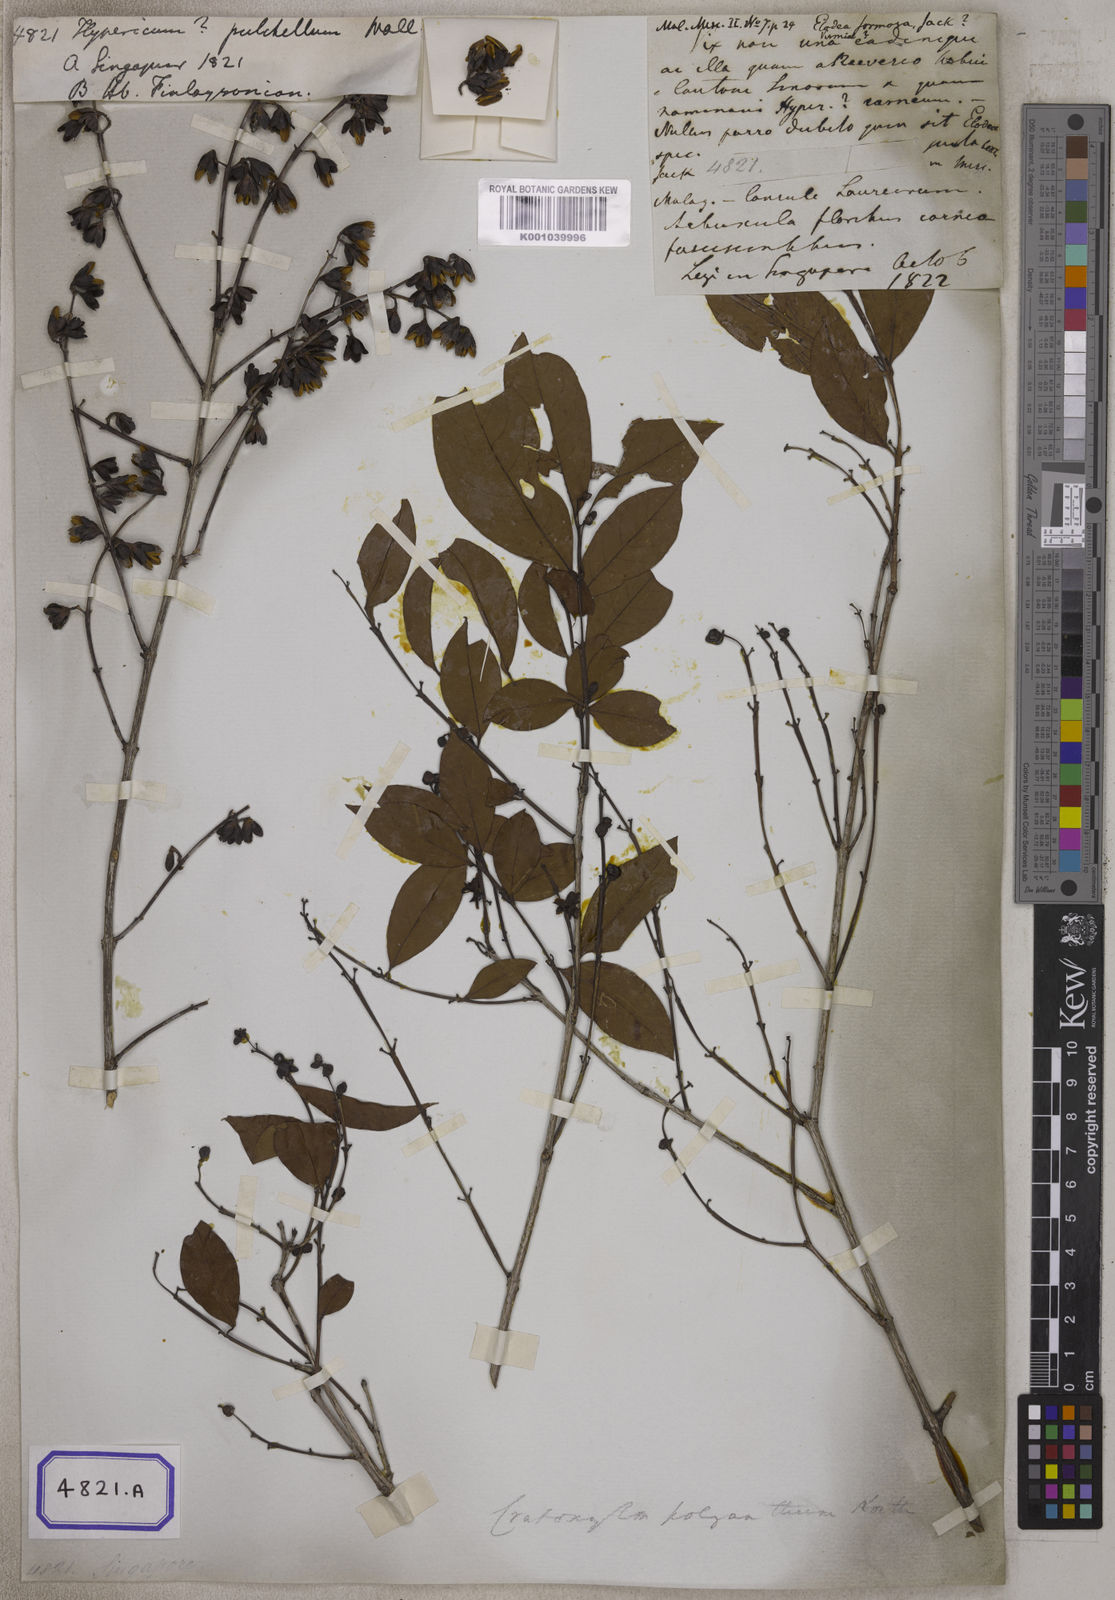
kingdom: Plantae
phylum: Tracheophyta
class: Magnoliopsida
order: Malpighiales
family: Hypericaceae
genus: Hypericum
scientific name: Hypericum
